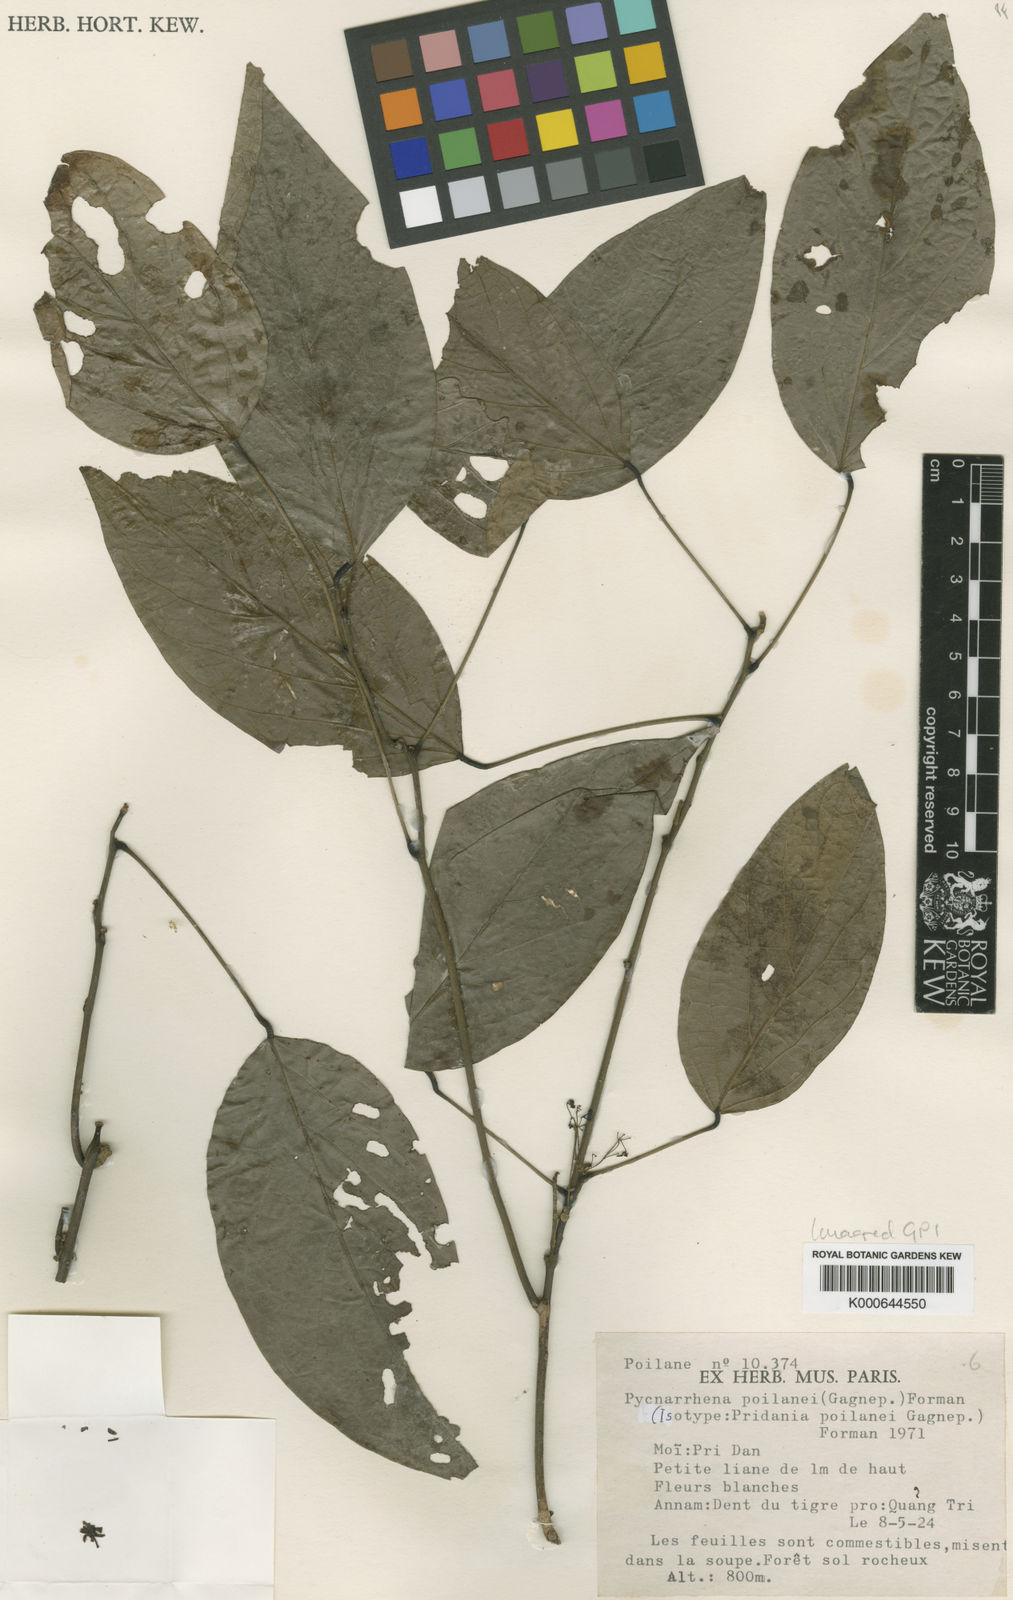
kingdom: Plantae
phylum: Tracheophyta
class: Magnoliopsida
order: Ranunculales
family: Menispermaceae
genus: Pycnarrhena
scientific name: Pycnarrhena poilanei
